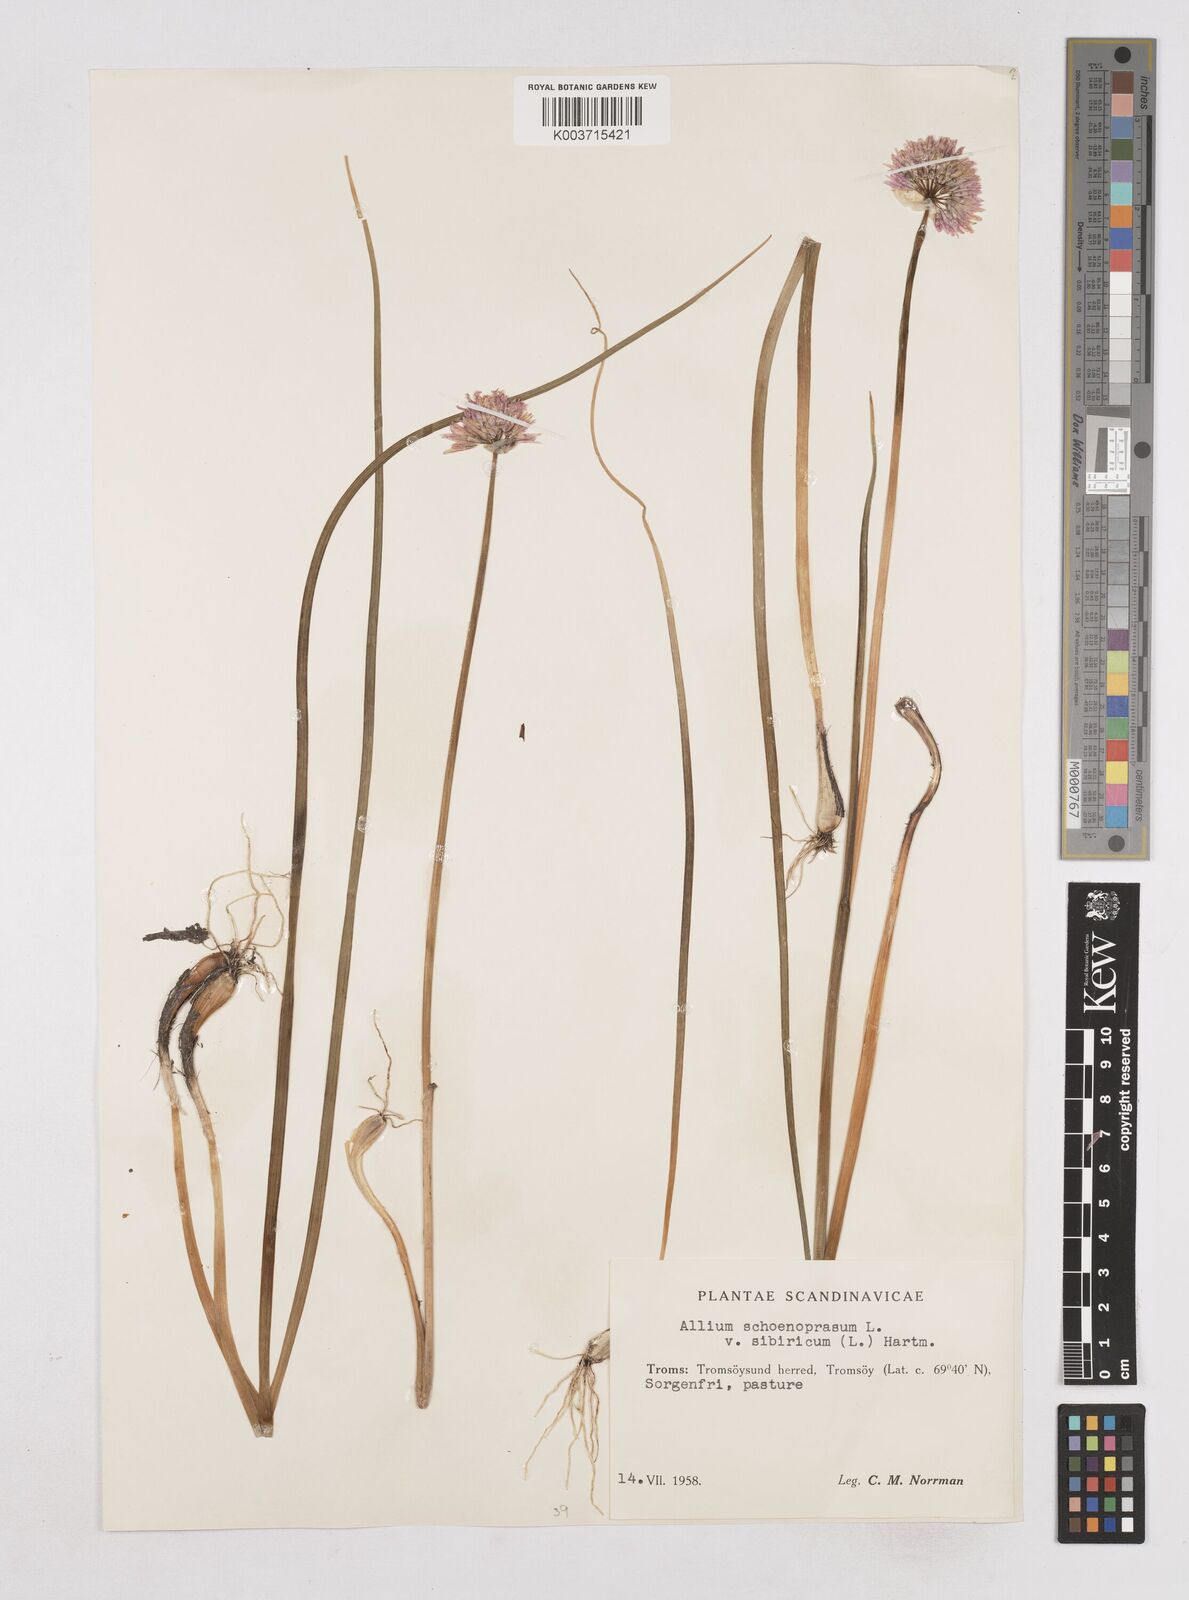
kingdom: Plantae
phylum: Tracheophyta
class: Liliopsida
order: Asparagales
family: Amaryllidaceae
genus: Allium
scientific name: Allium schoenoprasum
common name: Chives
